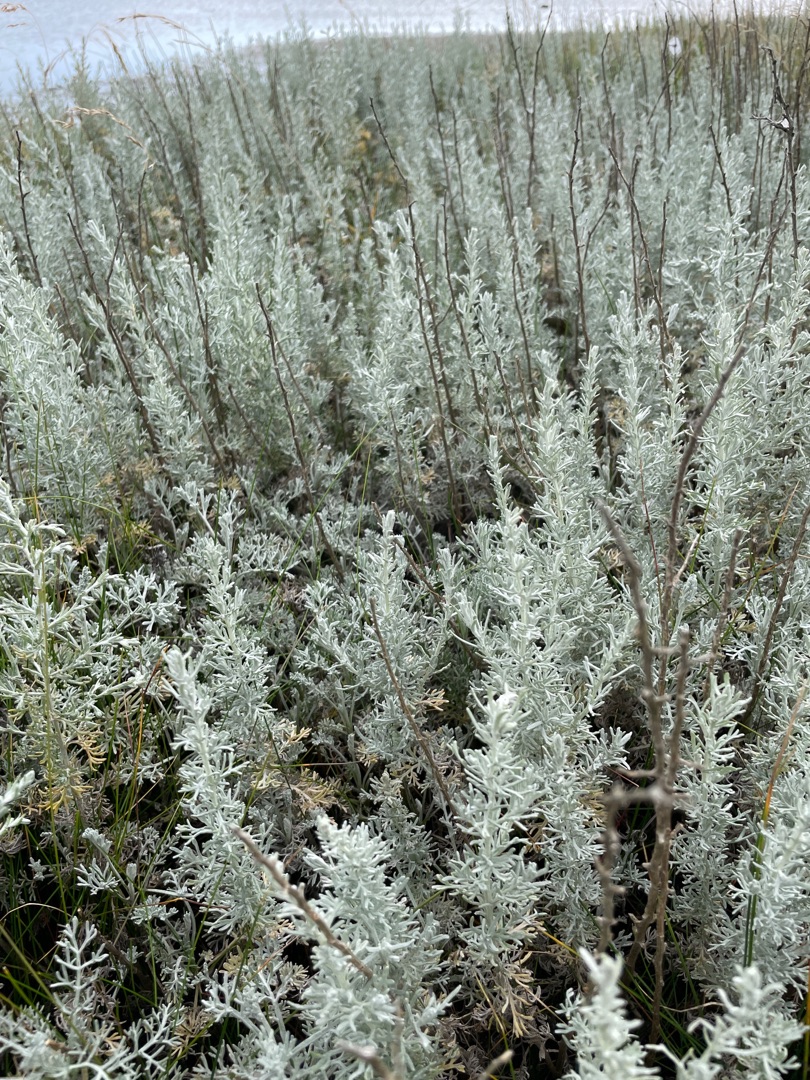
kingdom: Plantae
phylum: Tracheophyta
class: Magnoliopsida
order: Asterales
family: Asteraceae
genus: Artemisia
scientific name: Artemisia maritima
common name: Strandmalurt
